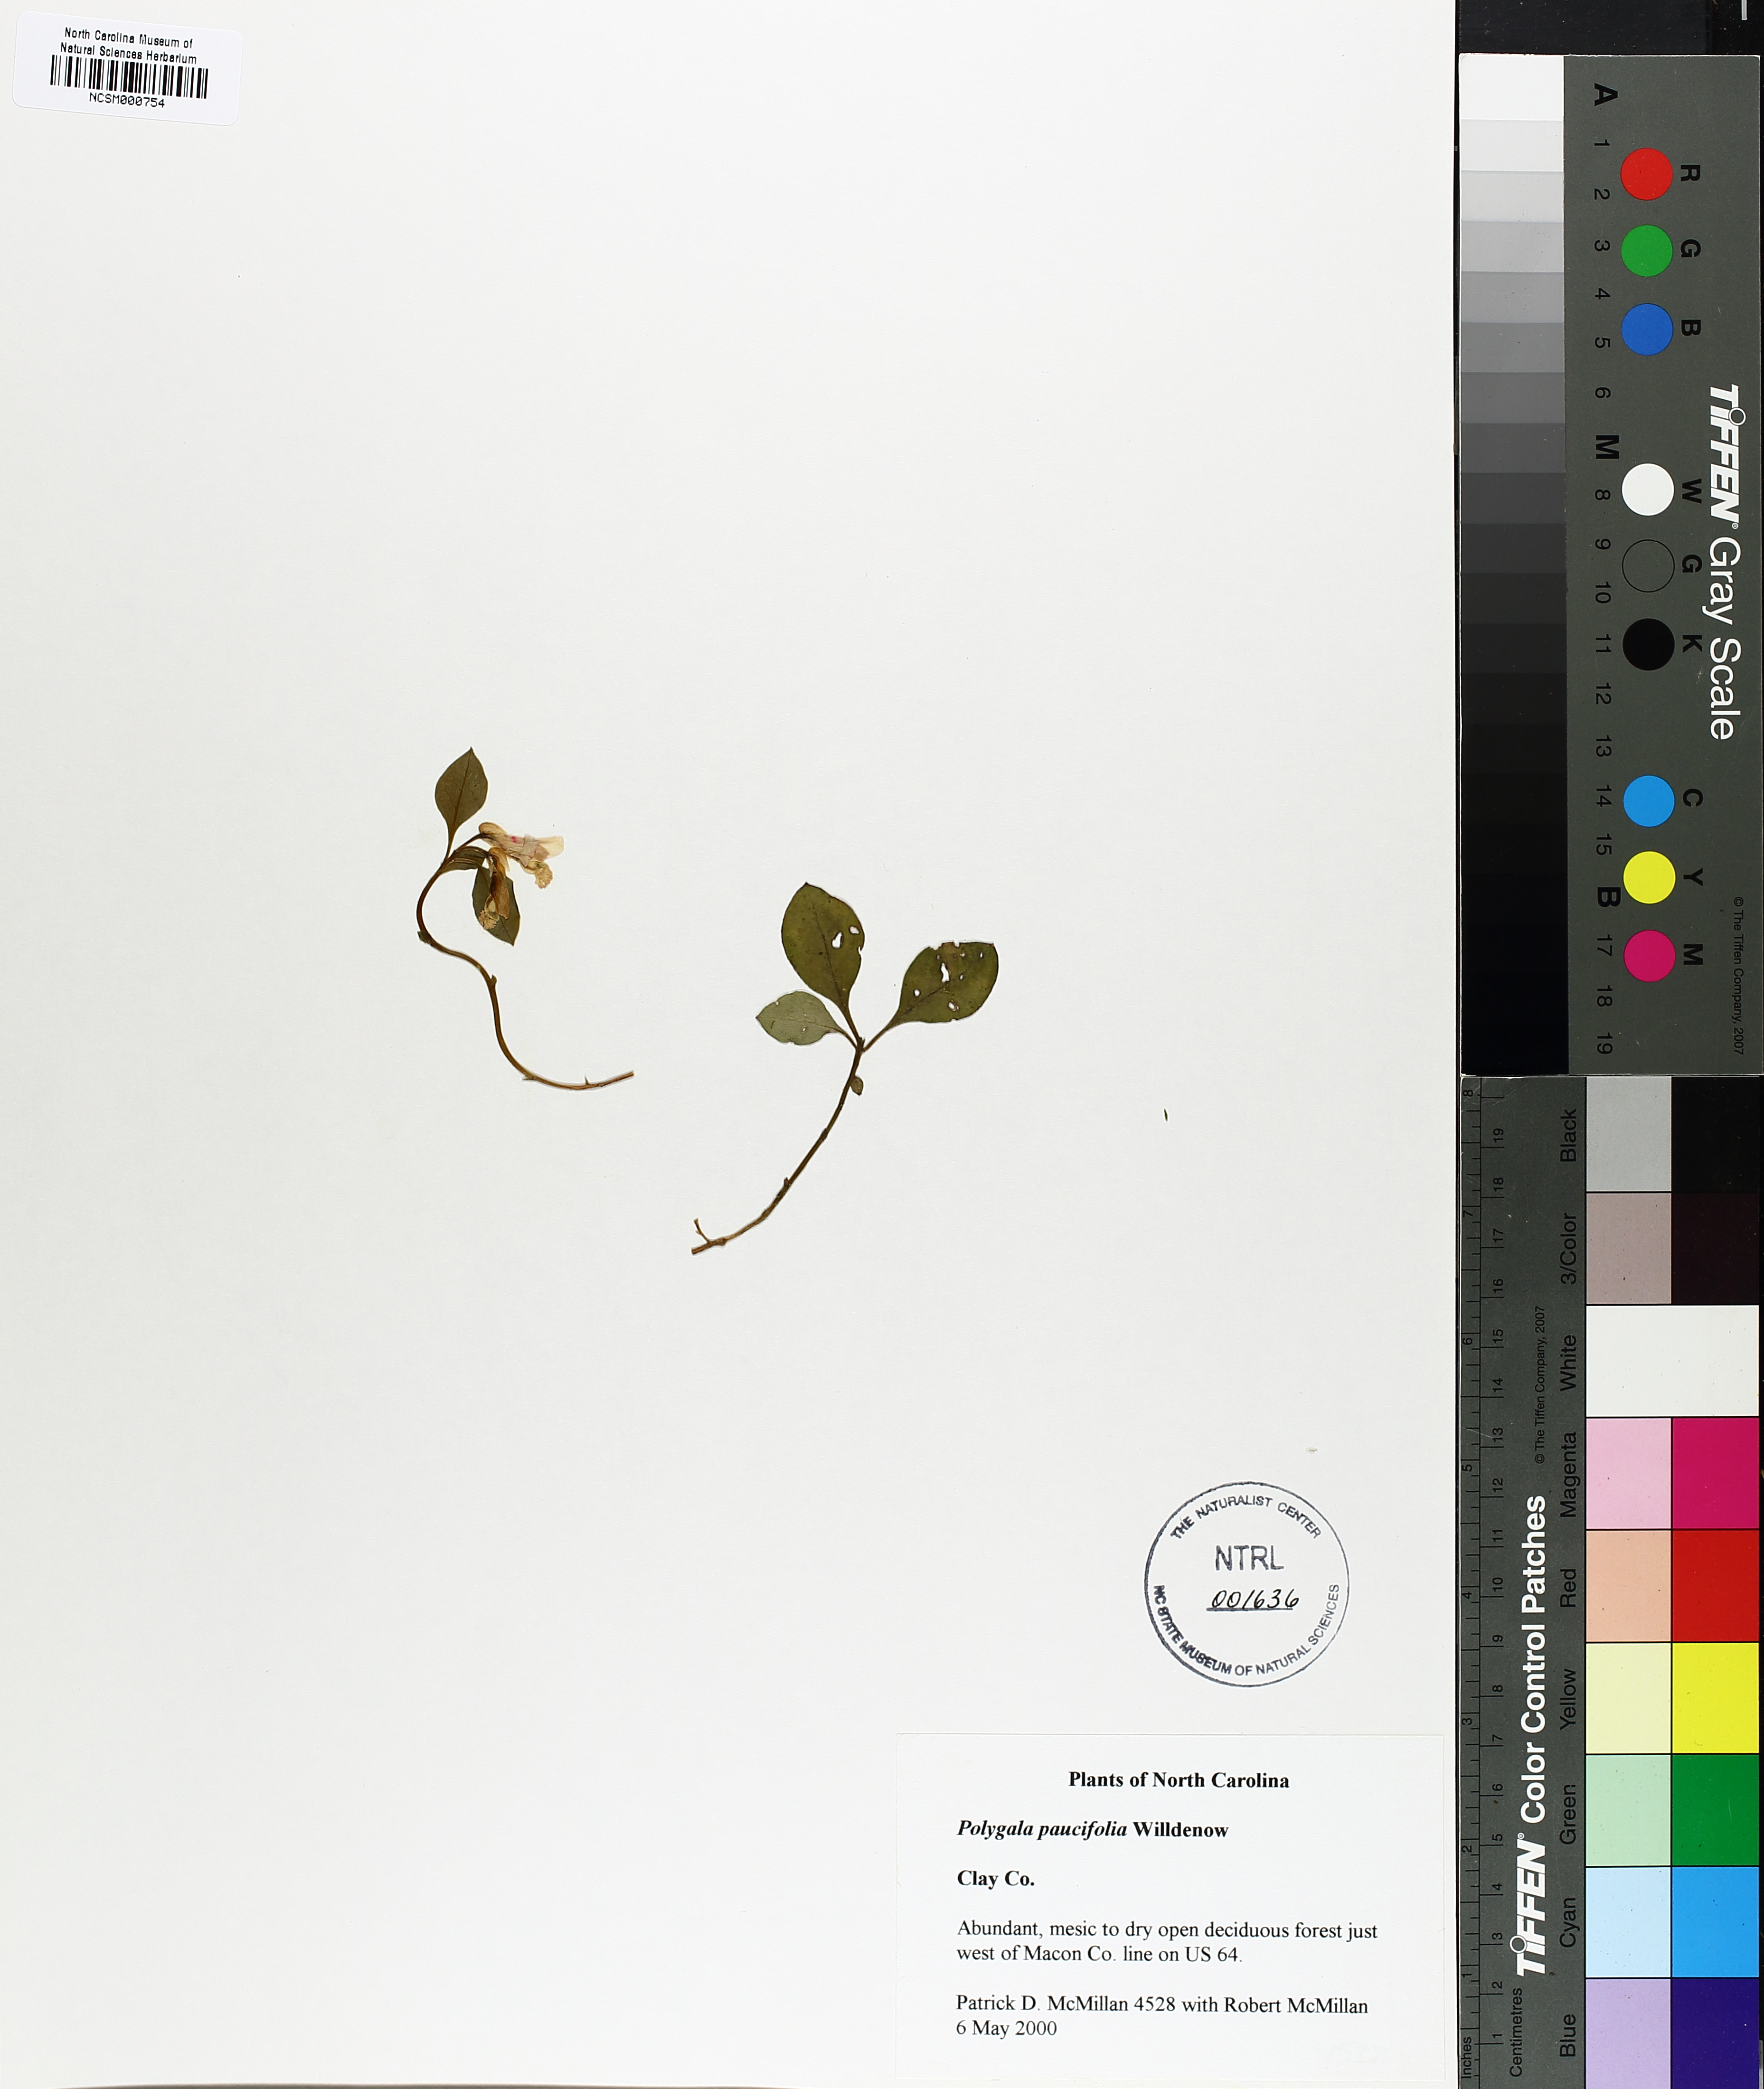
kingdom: Plantae
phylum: Tracheophyta
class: Magnoliopsida
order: Fabales
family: Polygalaceae
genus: Polygaloides
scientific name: Polygaloides paucifolia
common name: Bird-on-the-wing
